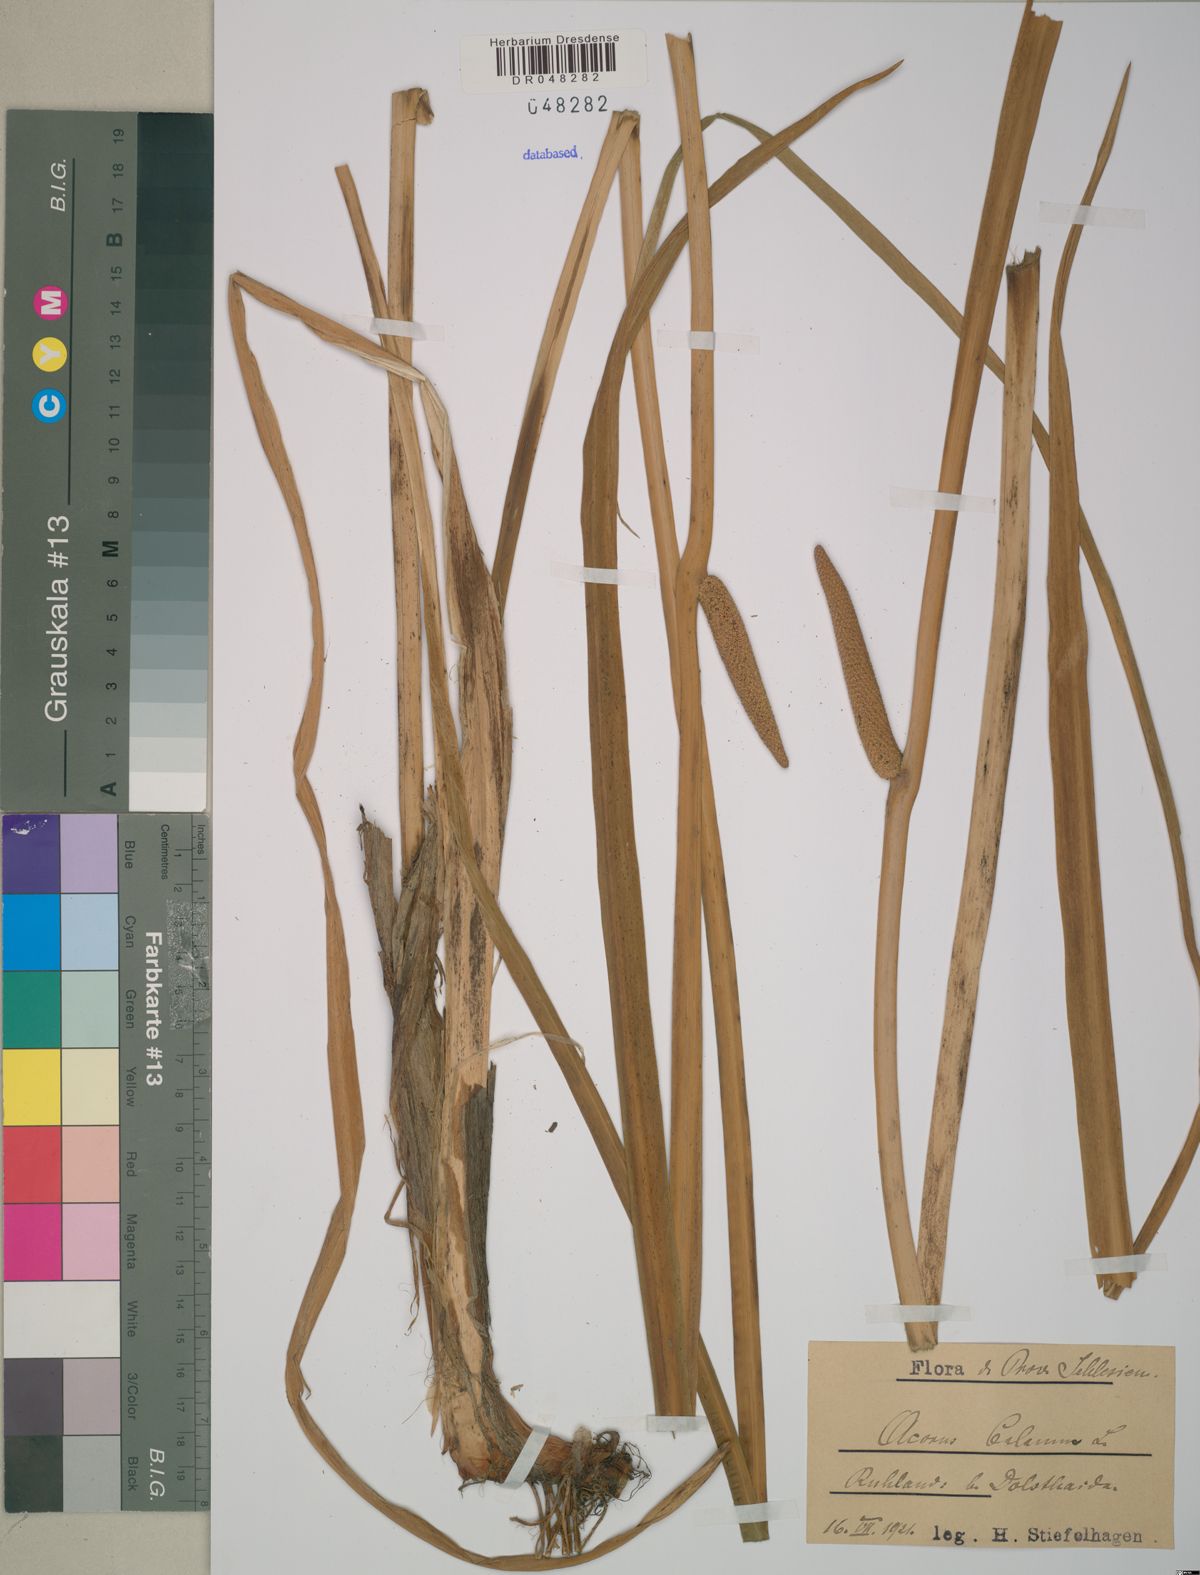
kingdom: Plantae
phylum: Tracheophyta
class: Liliopsida
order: Acorales
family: Acoraceae
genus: Acorus
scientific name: Acorus calamus
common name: Sweet-flag
